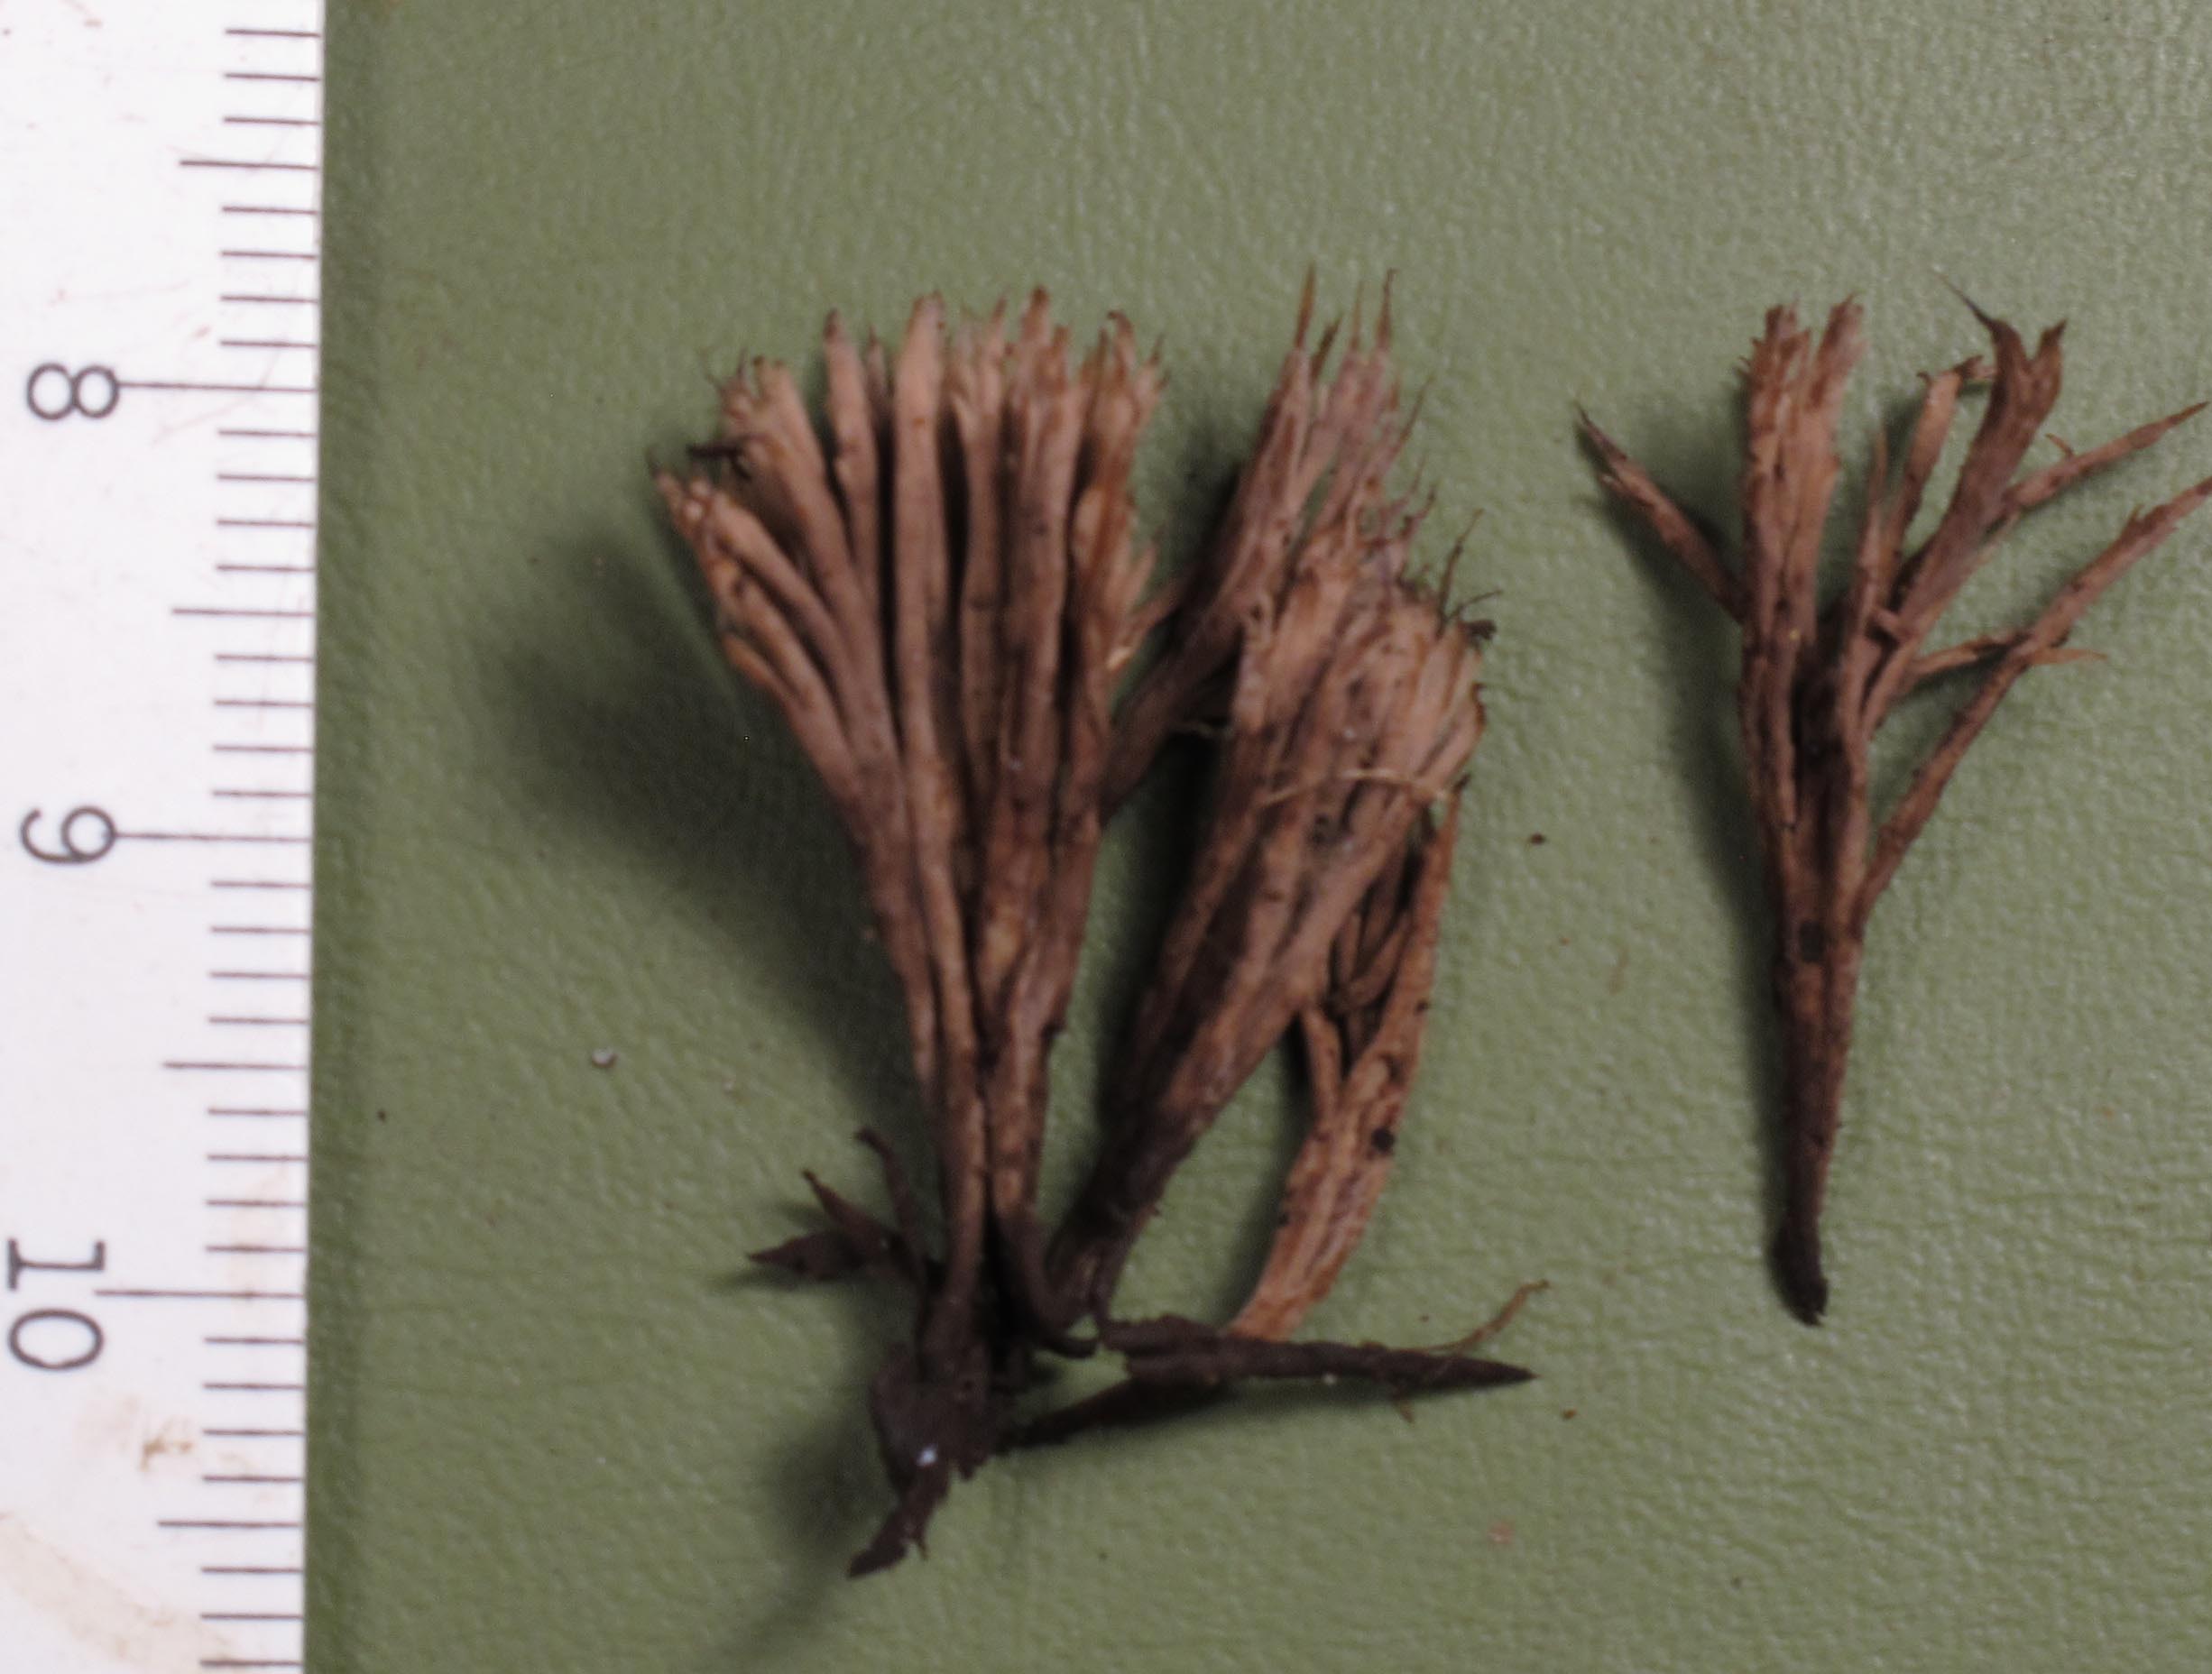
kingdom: Fungi
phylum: Basidiomycota
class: Agaricomycetes
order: Thelephorales
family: Thelephoraceae
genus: Thelephora
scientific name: Thelephora anthocephala
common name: busk-frynsesvamp
